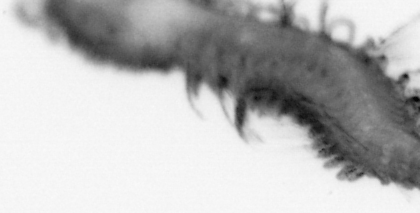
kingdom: Animalia
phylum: Annelida
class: Polychaeta
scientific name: Polychaeta
